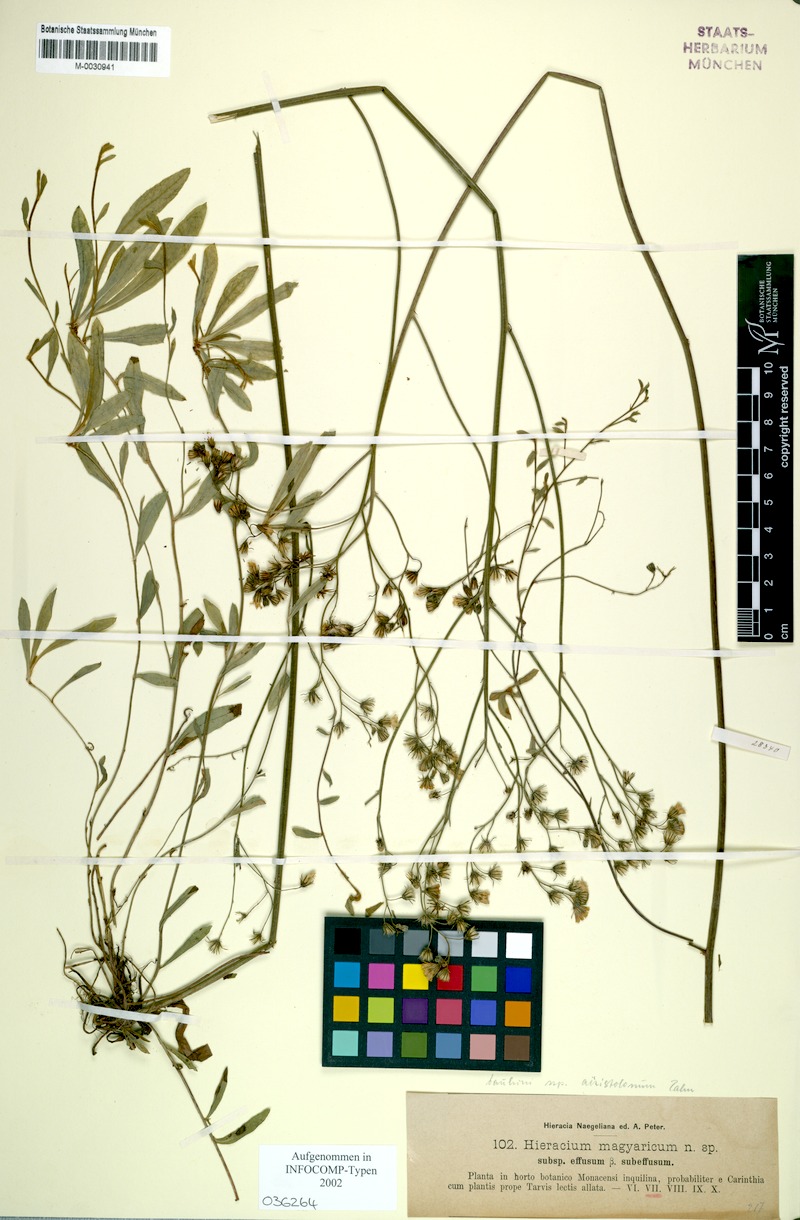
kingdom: Plantae
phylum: Tracheophyta
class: Magnoliopsida
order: Asterales
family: Asteraceae
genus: Pilosella
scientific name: Pilosella bauhini
